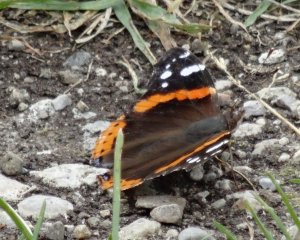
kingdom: Animalia
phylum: Arthropoda
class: Insecta
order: Lepidoptera
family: Nymphalidae
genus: Vanessa
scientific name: Vanessa atalanta
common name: Red Admiral
